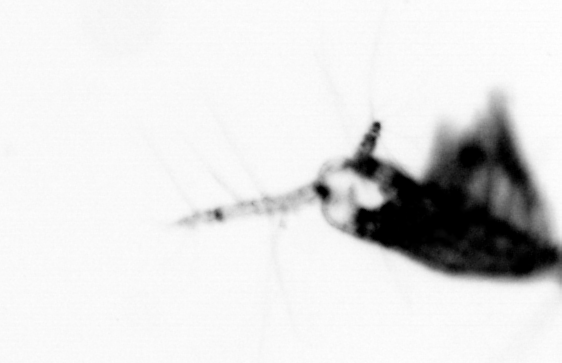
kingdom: Animalia
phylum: Arthropoda
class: Copepoda
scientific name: Copepoda
